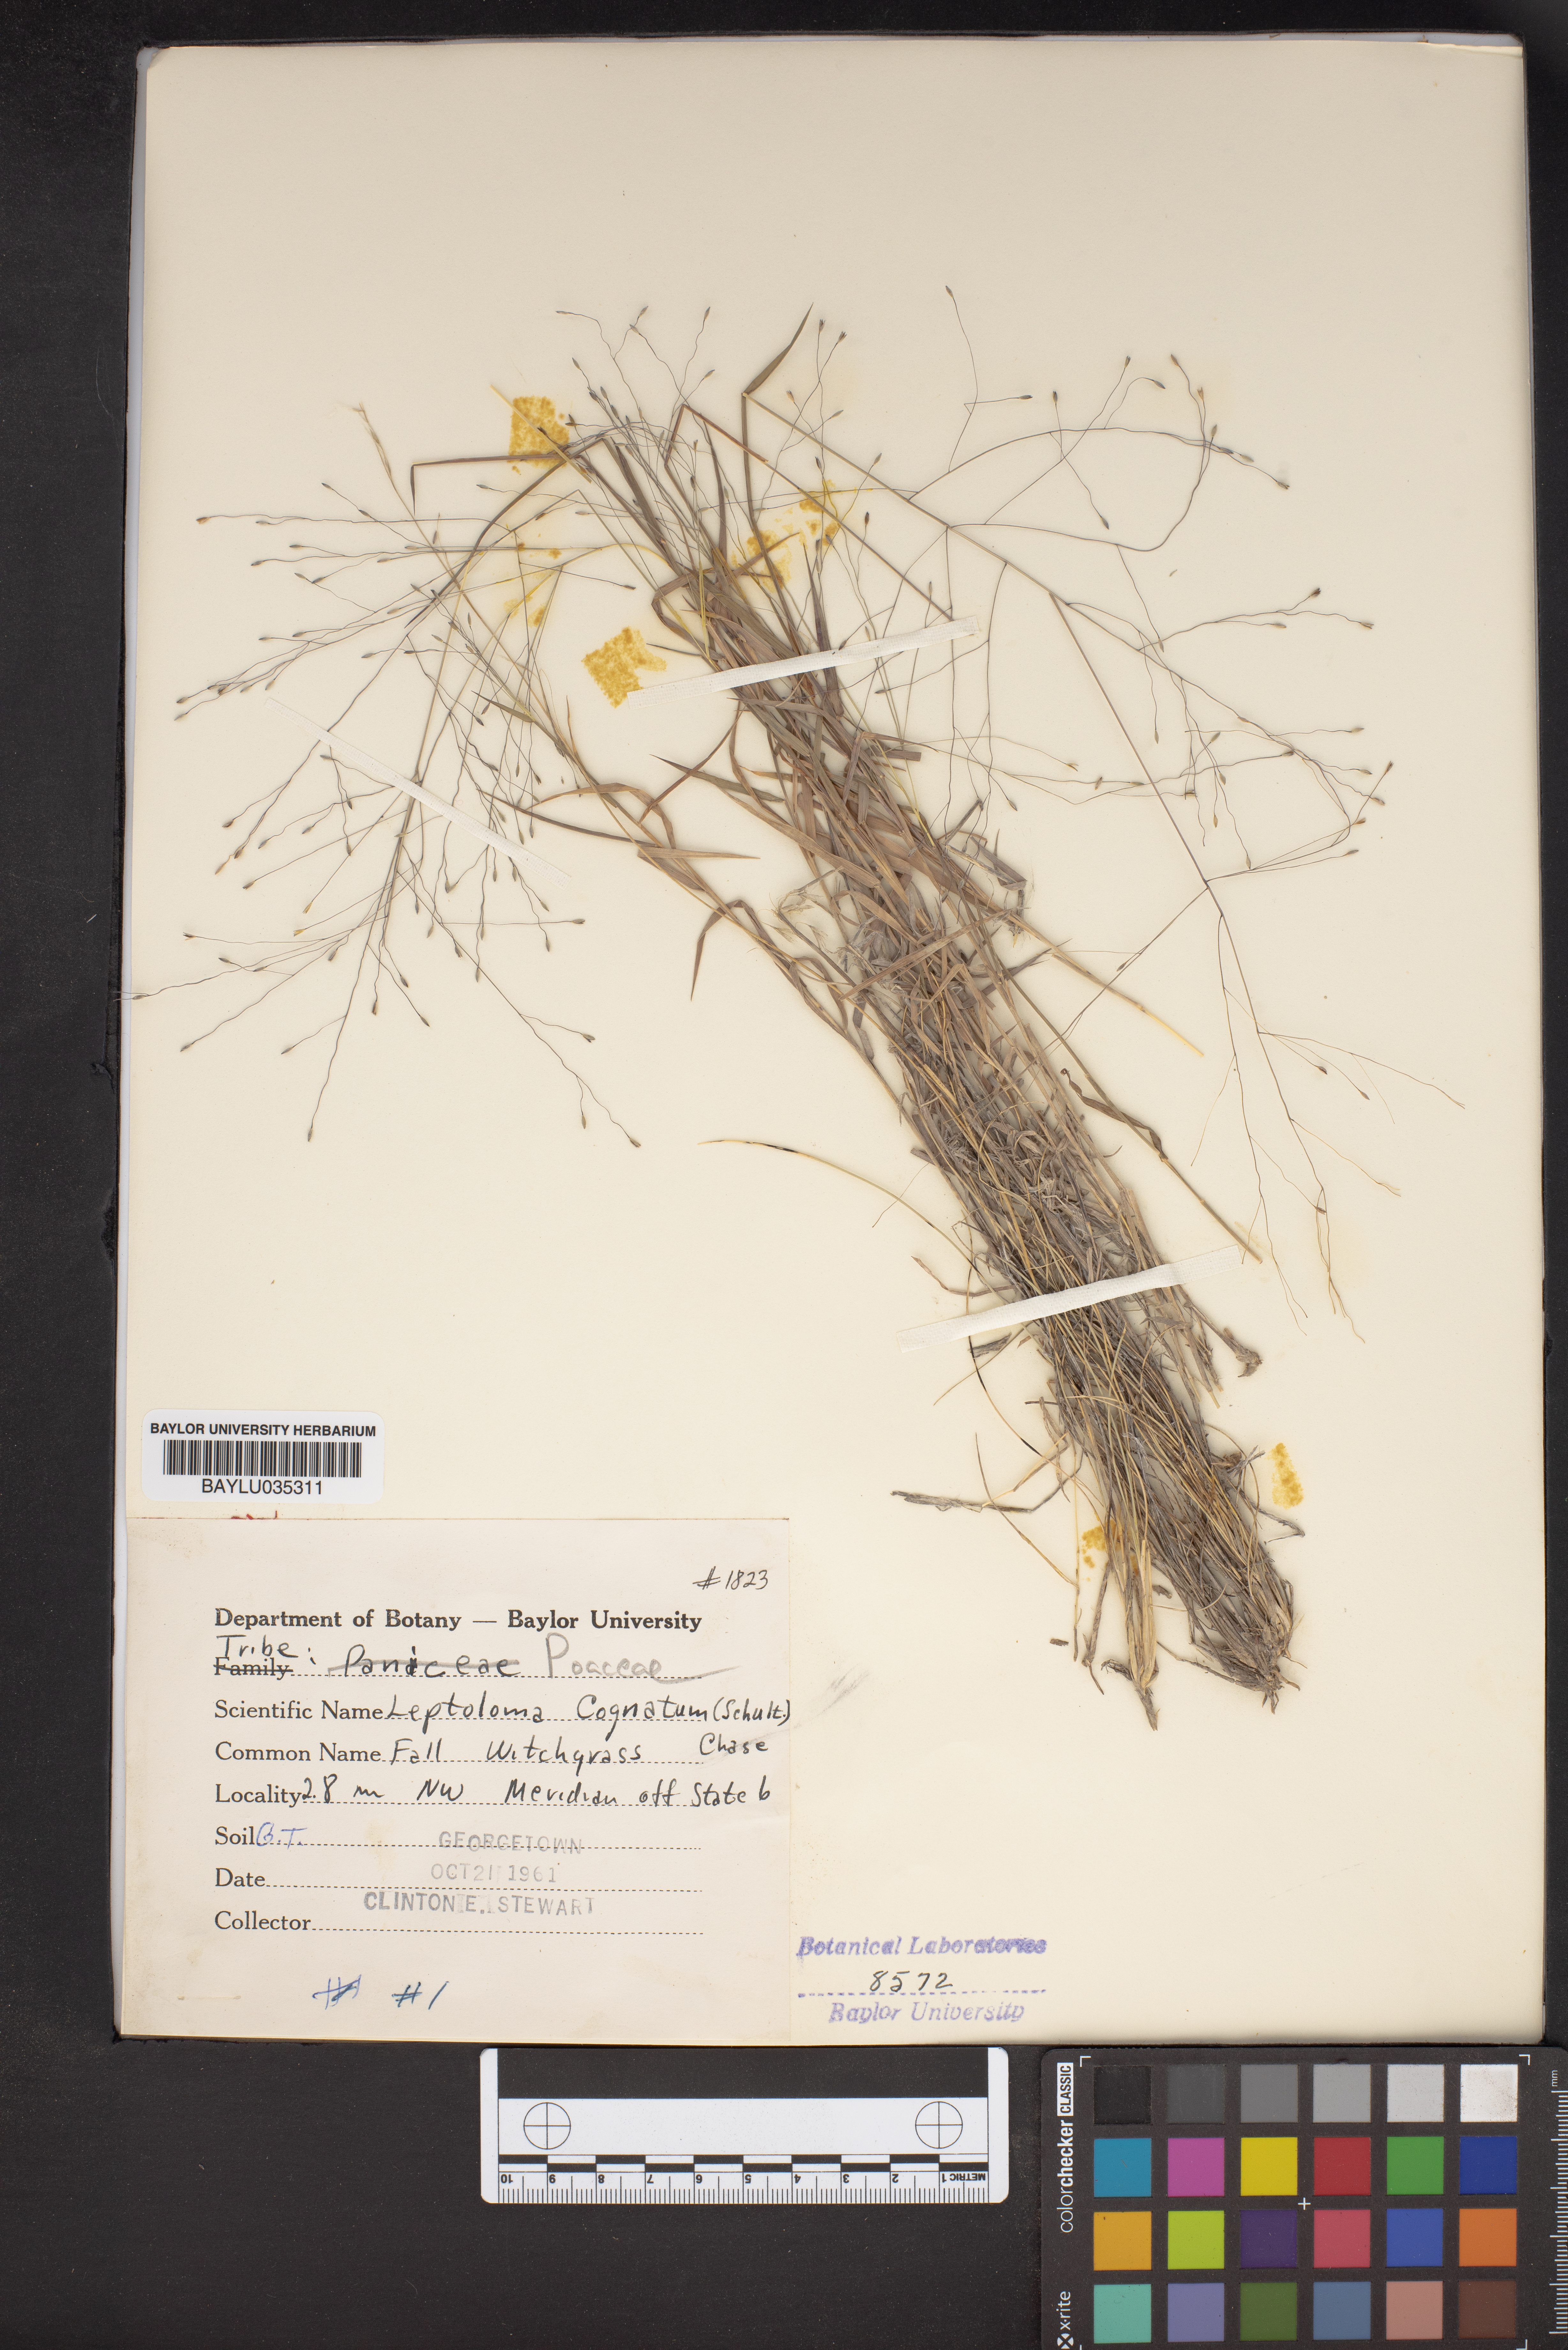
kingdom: Plantae
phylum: Tracheophyta
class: Liliopsida
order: Poales
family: Poaceae
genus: Digitaria
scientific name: Digitaria cognata
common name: Fall witchgrass
